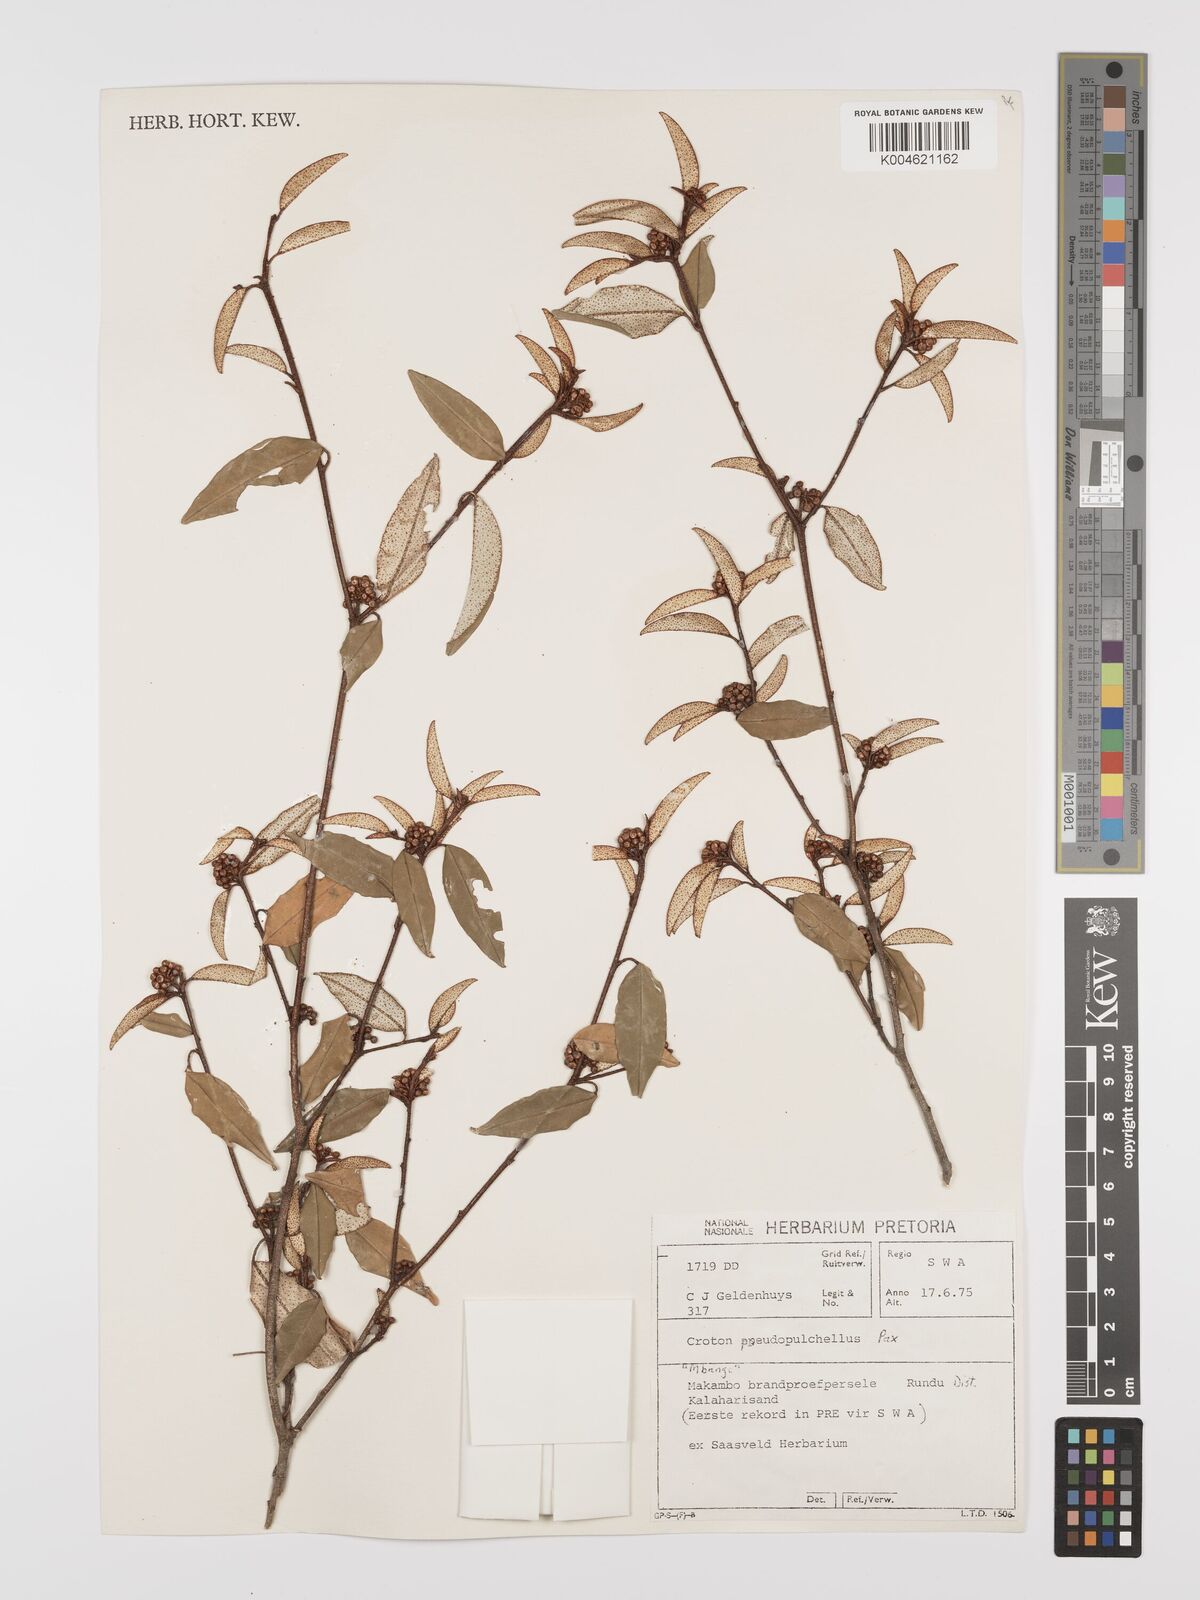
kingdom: Plantae
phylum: Tracheophyta
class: Magnoliopsida
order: Malpighiales
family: Euphorbiaceae
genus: Croton
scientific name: Croton pseudopulchellus
